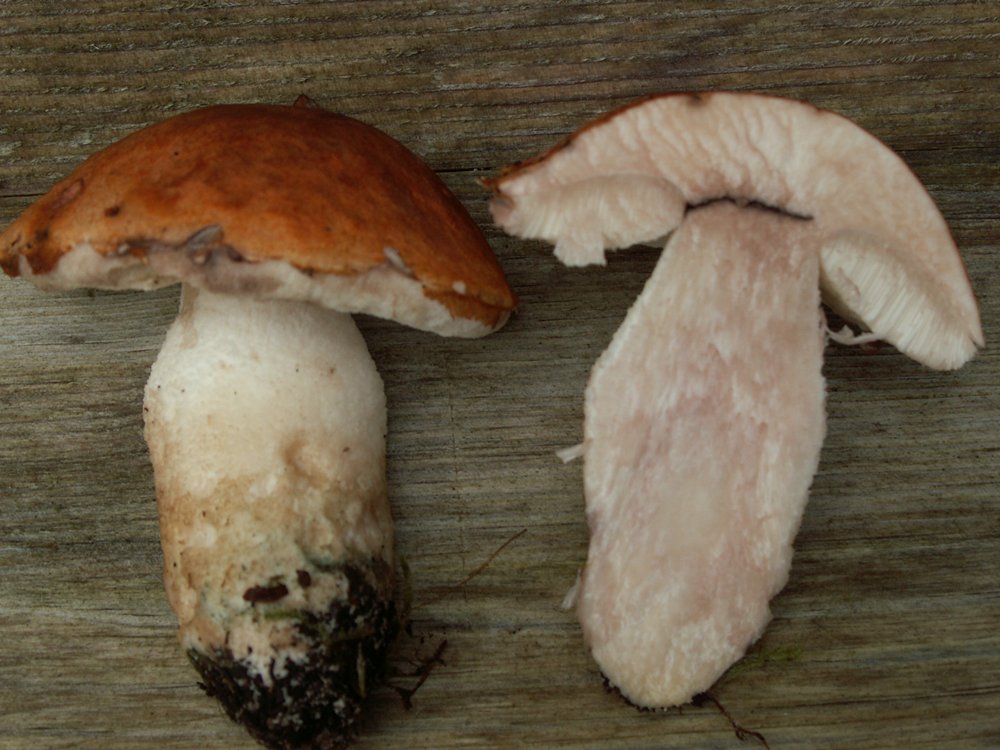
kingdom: Fungi
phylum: Basidiomycota
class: Agaricomycetes
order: Boletales
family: Boletaceae
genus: Leccinum
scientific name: Leccinum aurantiacum
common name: rustrød skælrørhat
